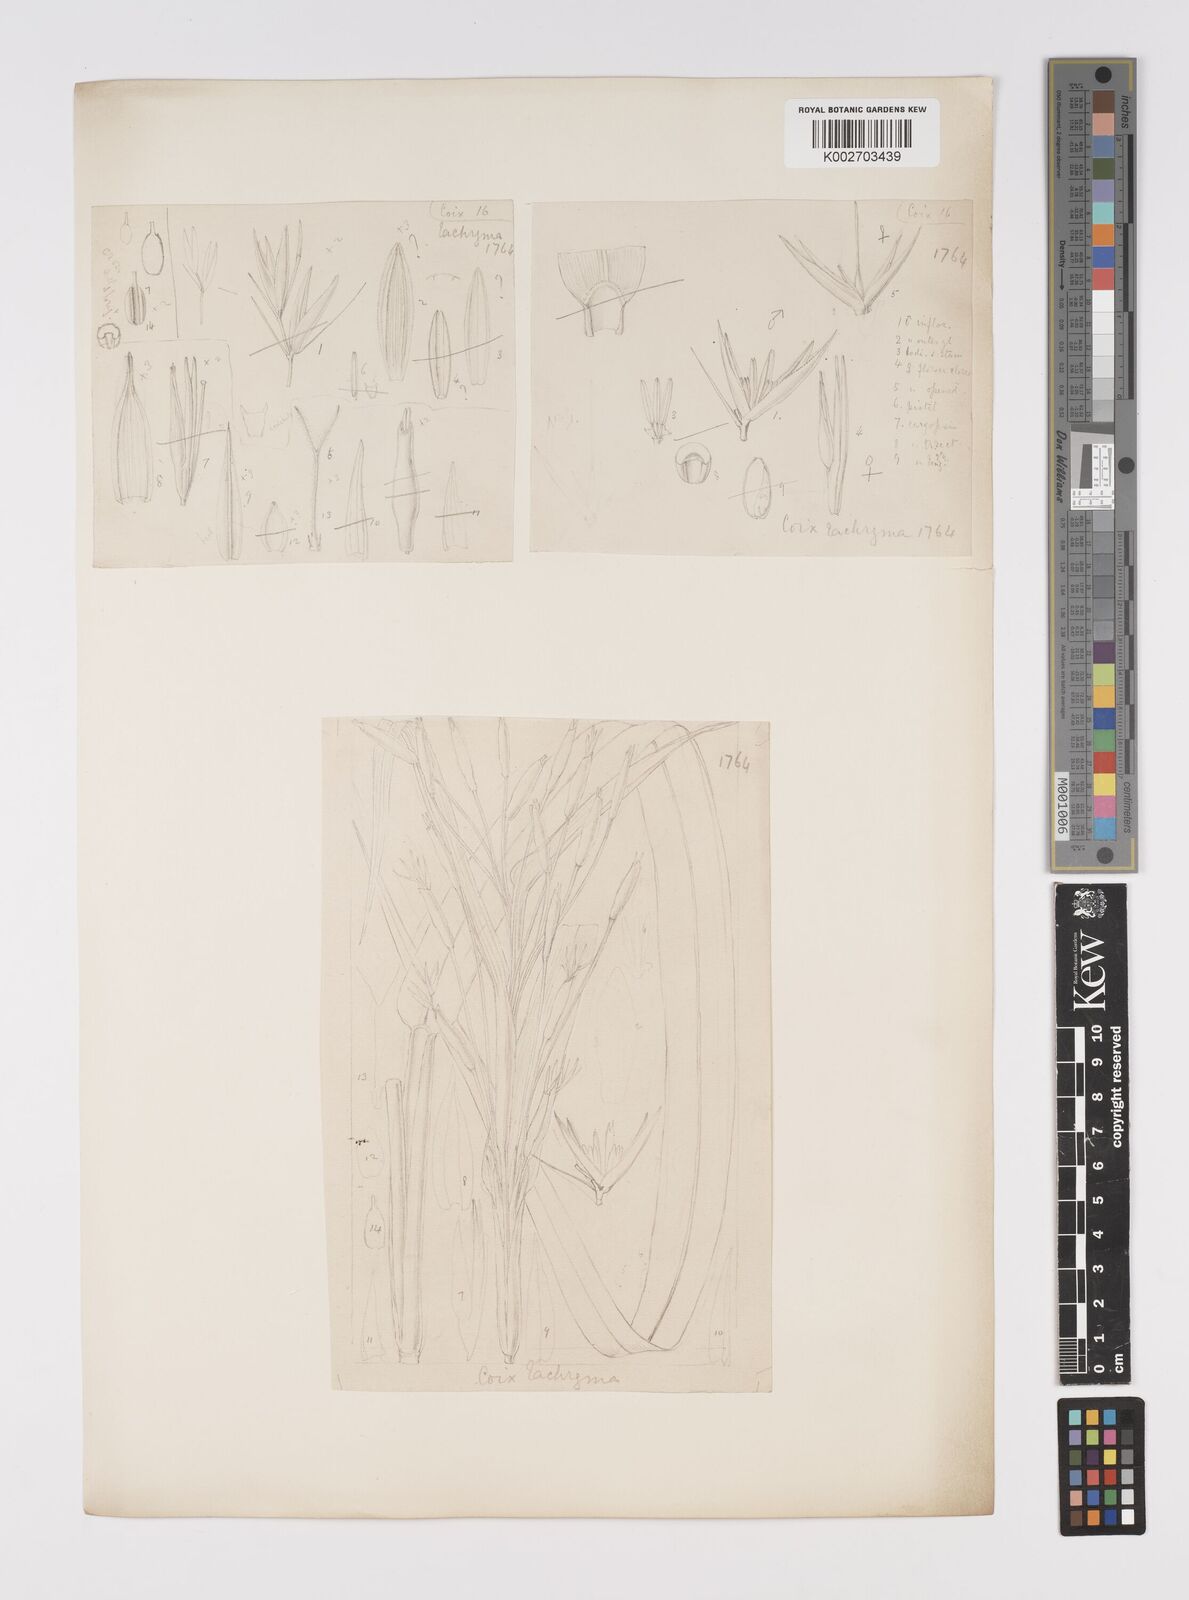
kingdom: Plantae
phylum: Tracheophyta
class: Liliopsida
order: Poales
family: Poaceae
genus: Coix
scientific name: Coix lacryma-jobi
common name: Job's tears
